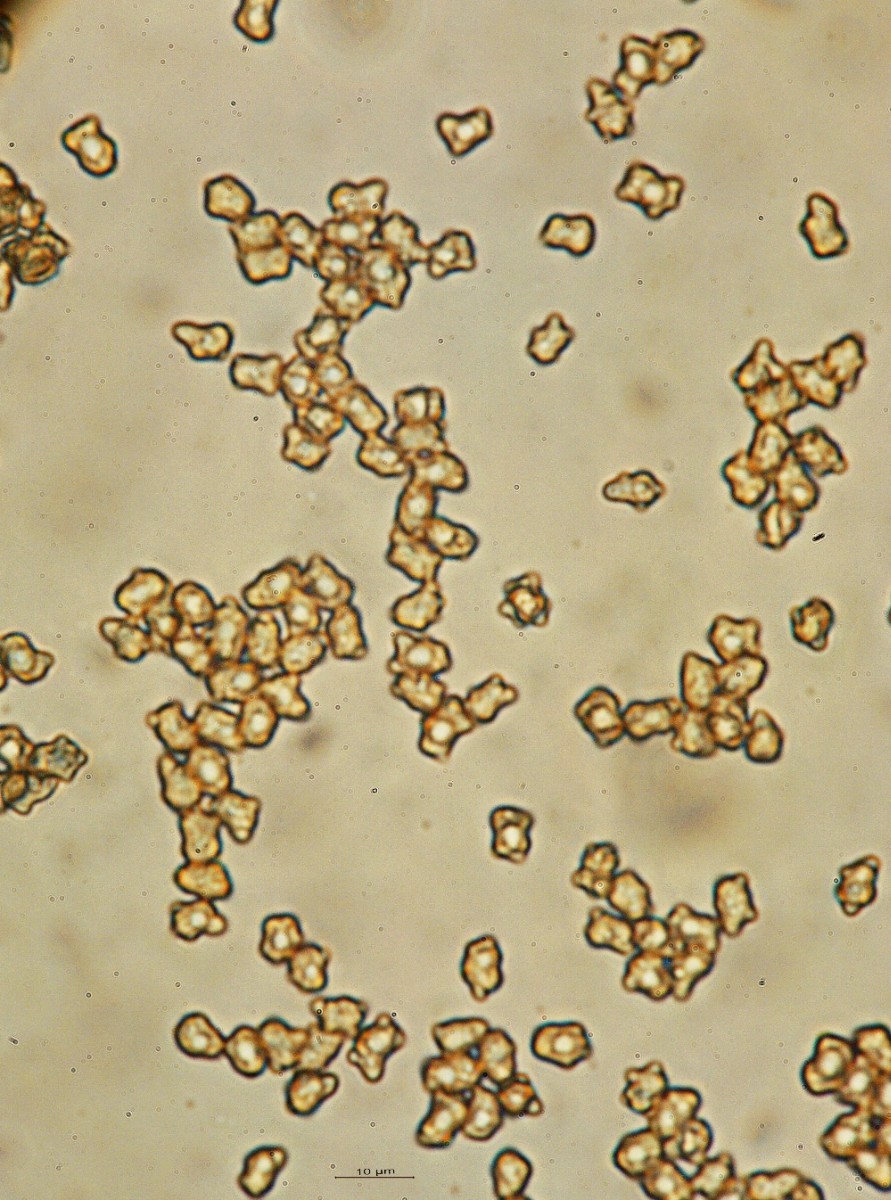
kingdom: Fungi
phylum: Basidiomycota
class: Agaricomycetes
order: Agaricales
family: Inocybaceae
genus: Inocybe
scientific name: Inocybe
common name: trævlhat
